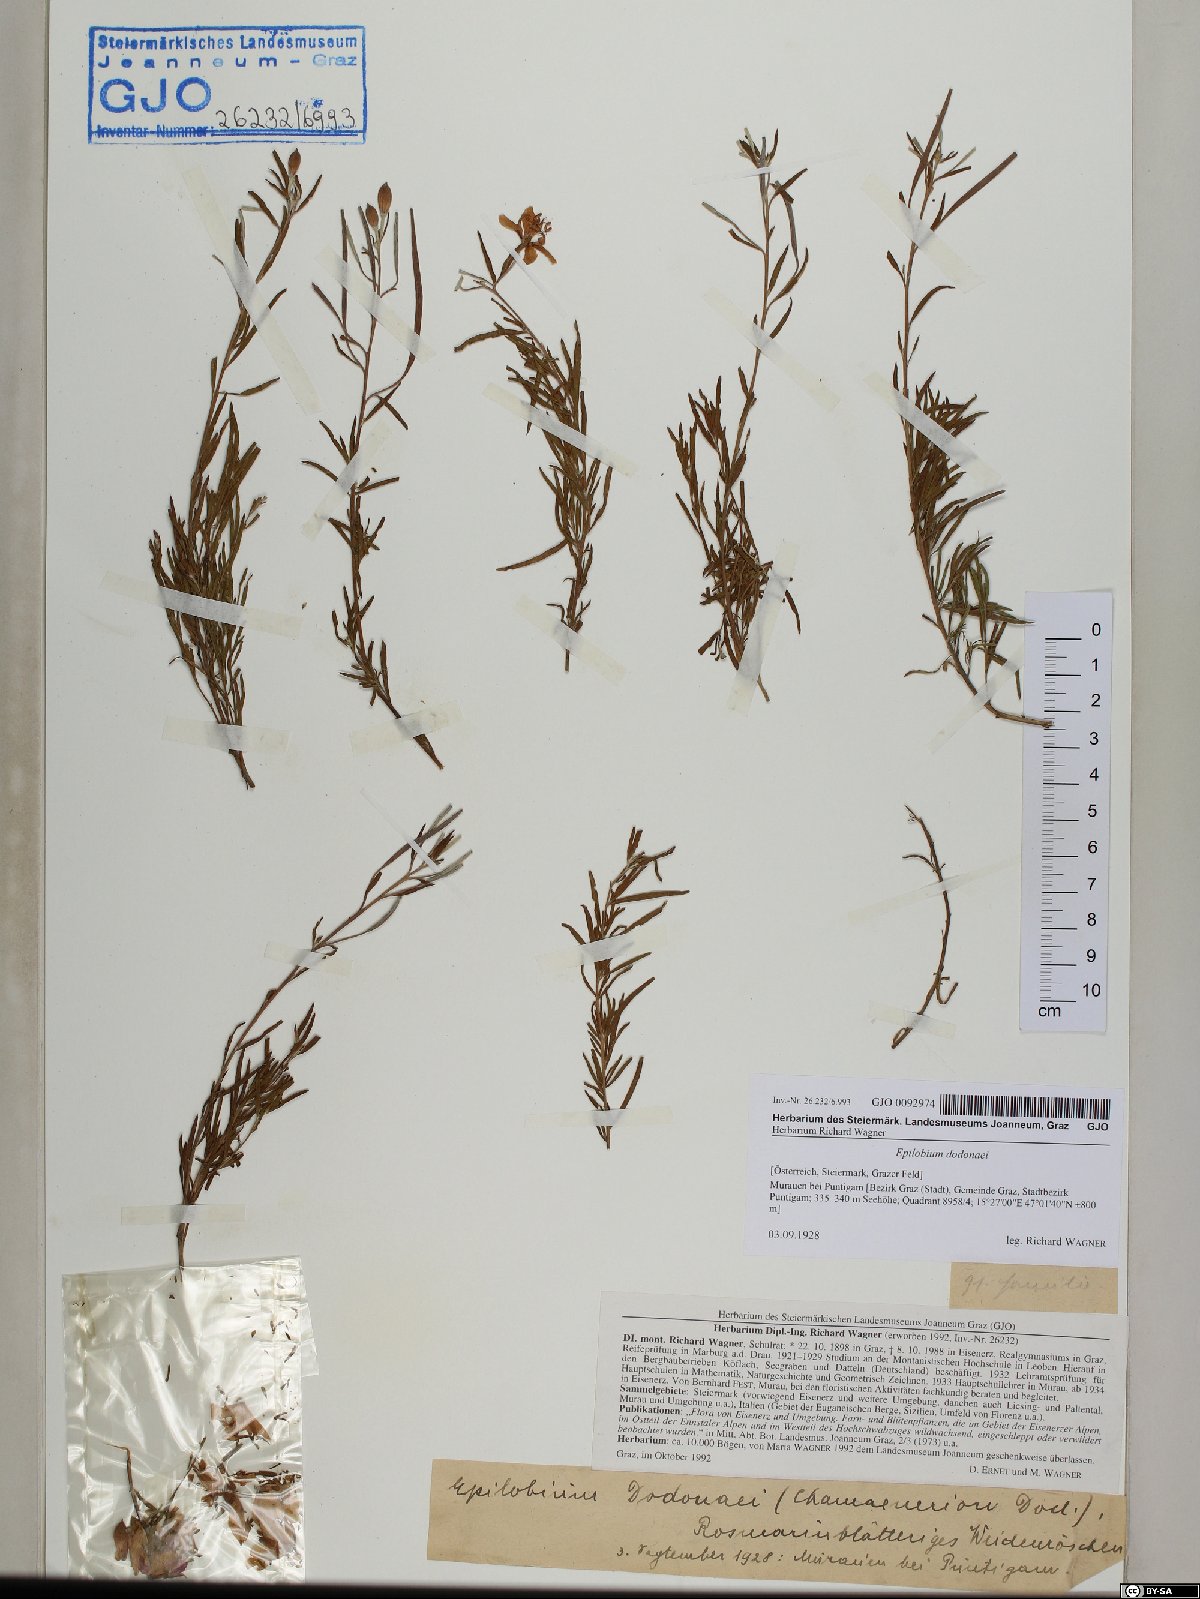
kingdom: Plantae
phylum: Tracheophyta
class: Magnoliopsida
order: Myrtales
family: Onagraceae
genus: Chamaenerion
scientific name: Chamaenerion dodonaei
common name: Rosemary-leaved willowherb
